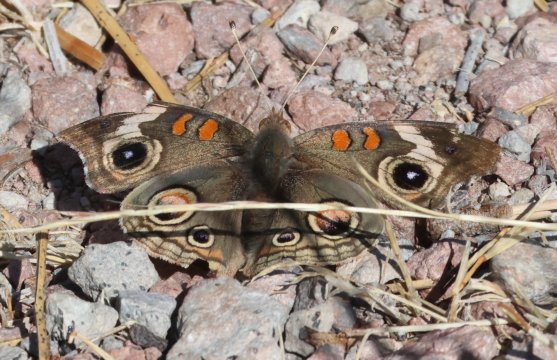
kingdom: Animalia
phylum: Arthropoda
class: Insecta
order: Lepidoptera
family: Nymphalidae
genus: Junonia
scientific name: Junonia coenia
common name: Common Buckeye
